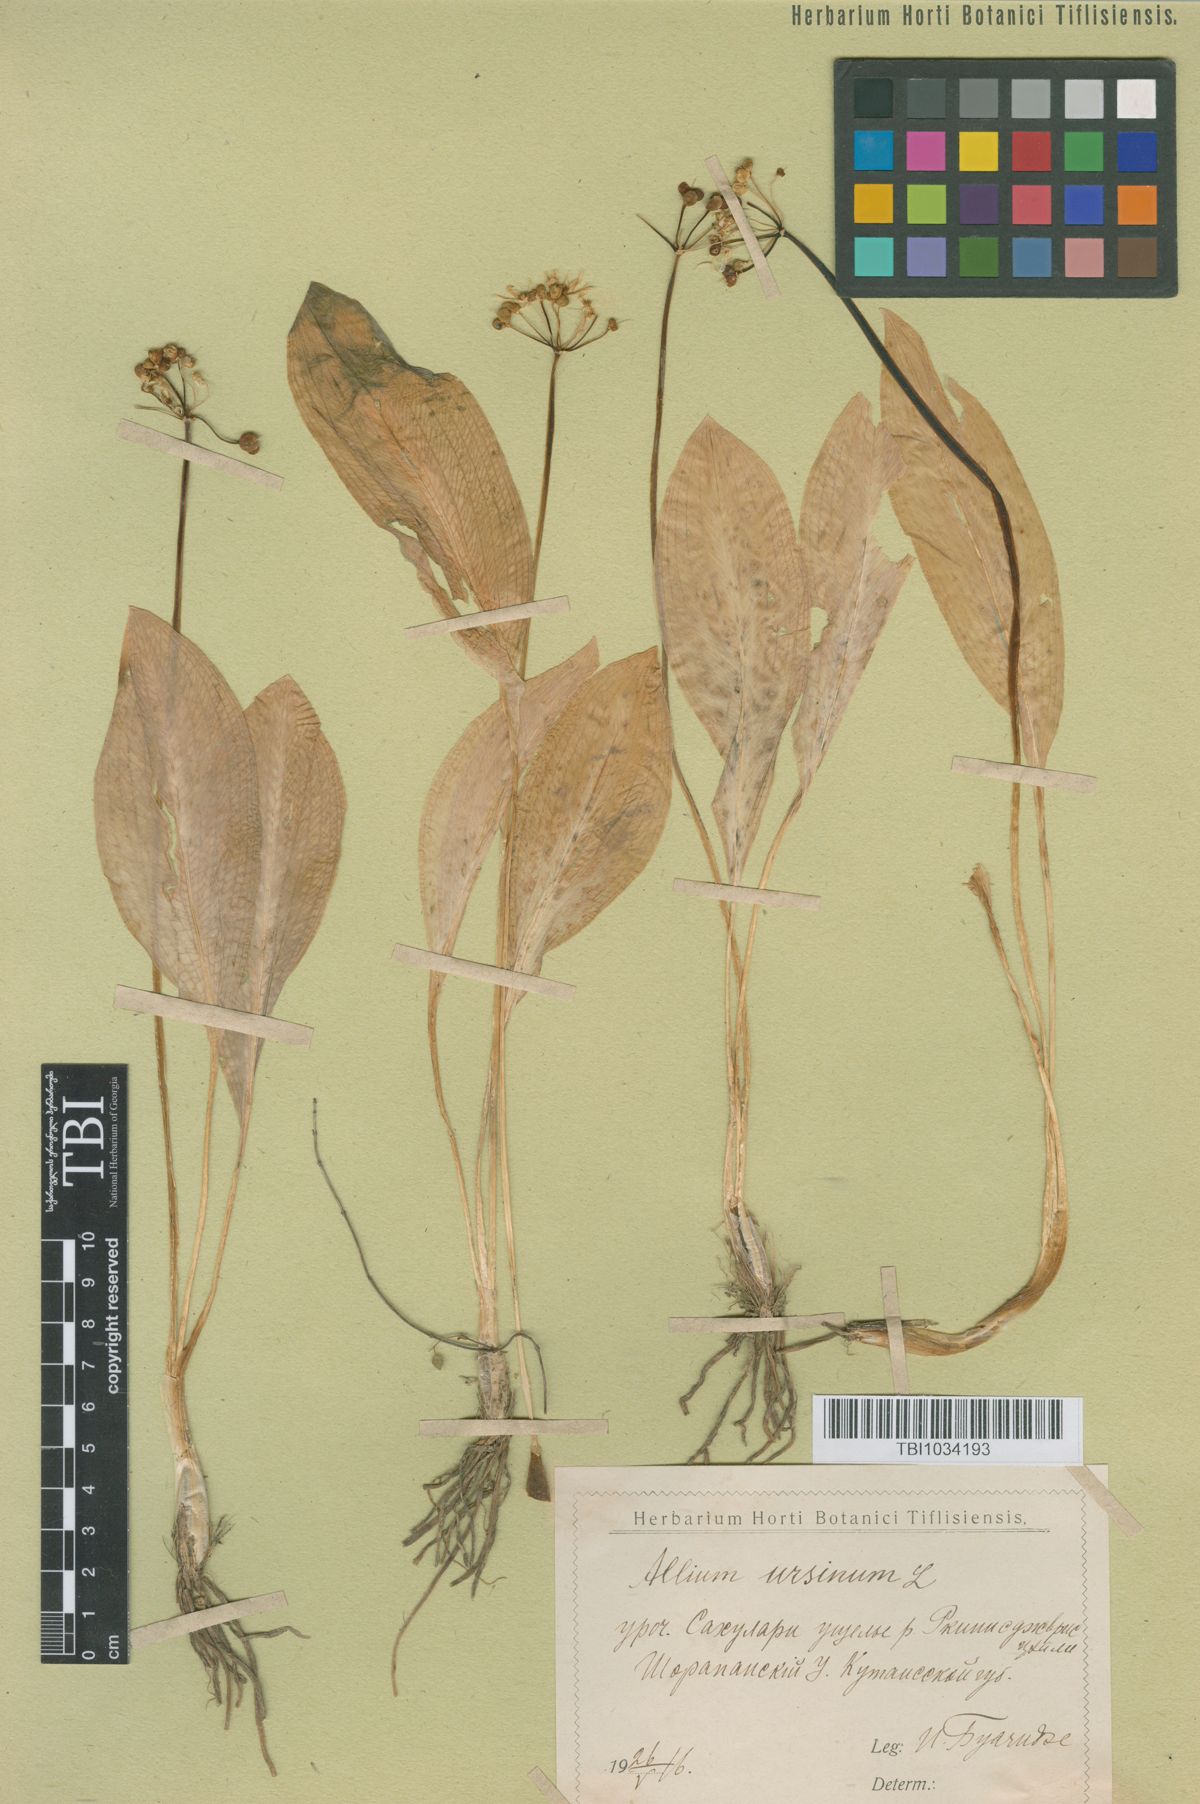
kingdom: Plantae
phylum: Tracheophyta
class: Liliopsida
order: Asparagales
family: Amaryllidaceae
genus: Allium
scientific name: Allium ursinum
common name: Ramsons
